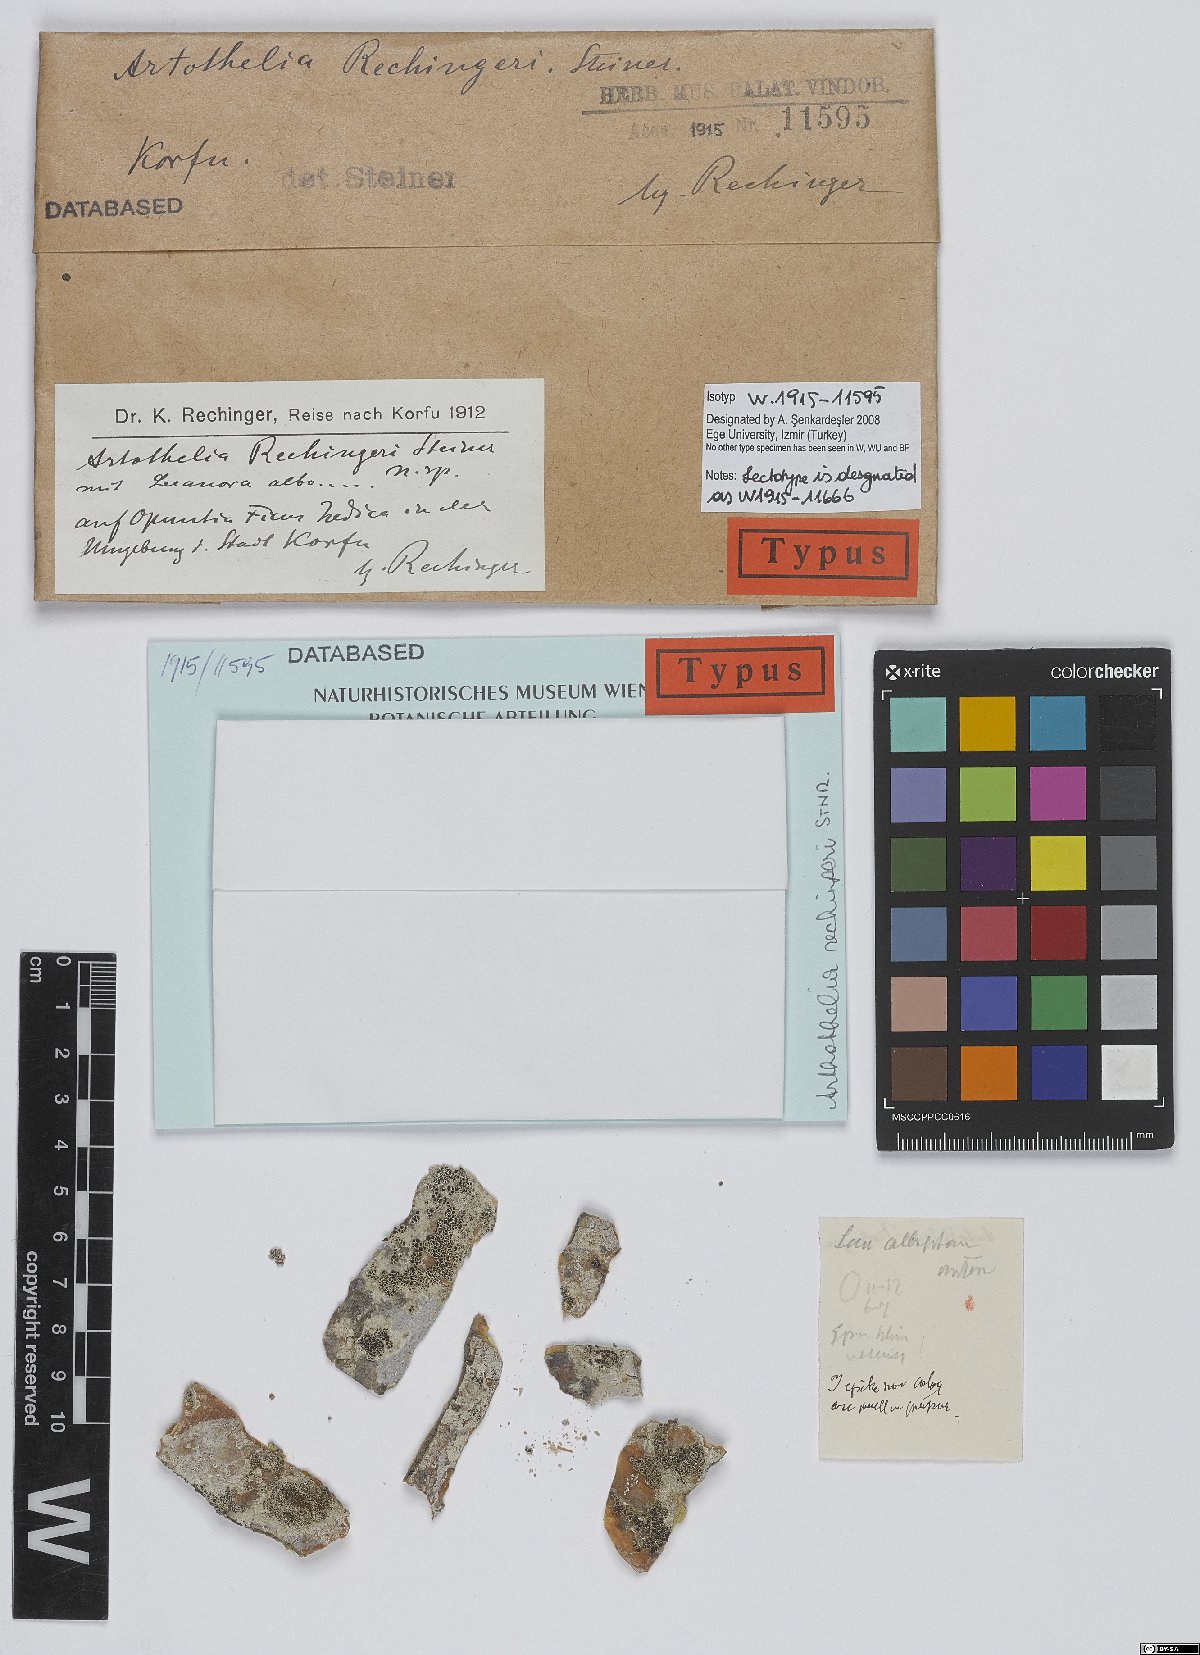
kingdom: Fungi
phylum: Ascomycota
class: Arthoniomycetes
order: Arthoniales
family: Arthoniaceae
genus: Arthothelium
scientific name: Arthothelium
